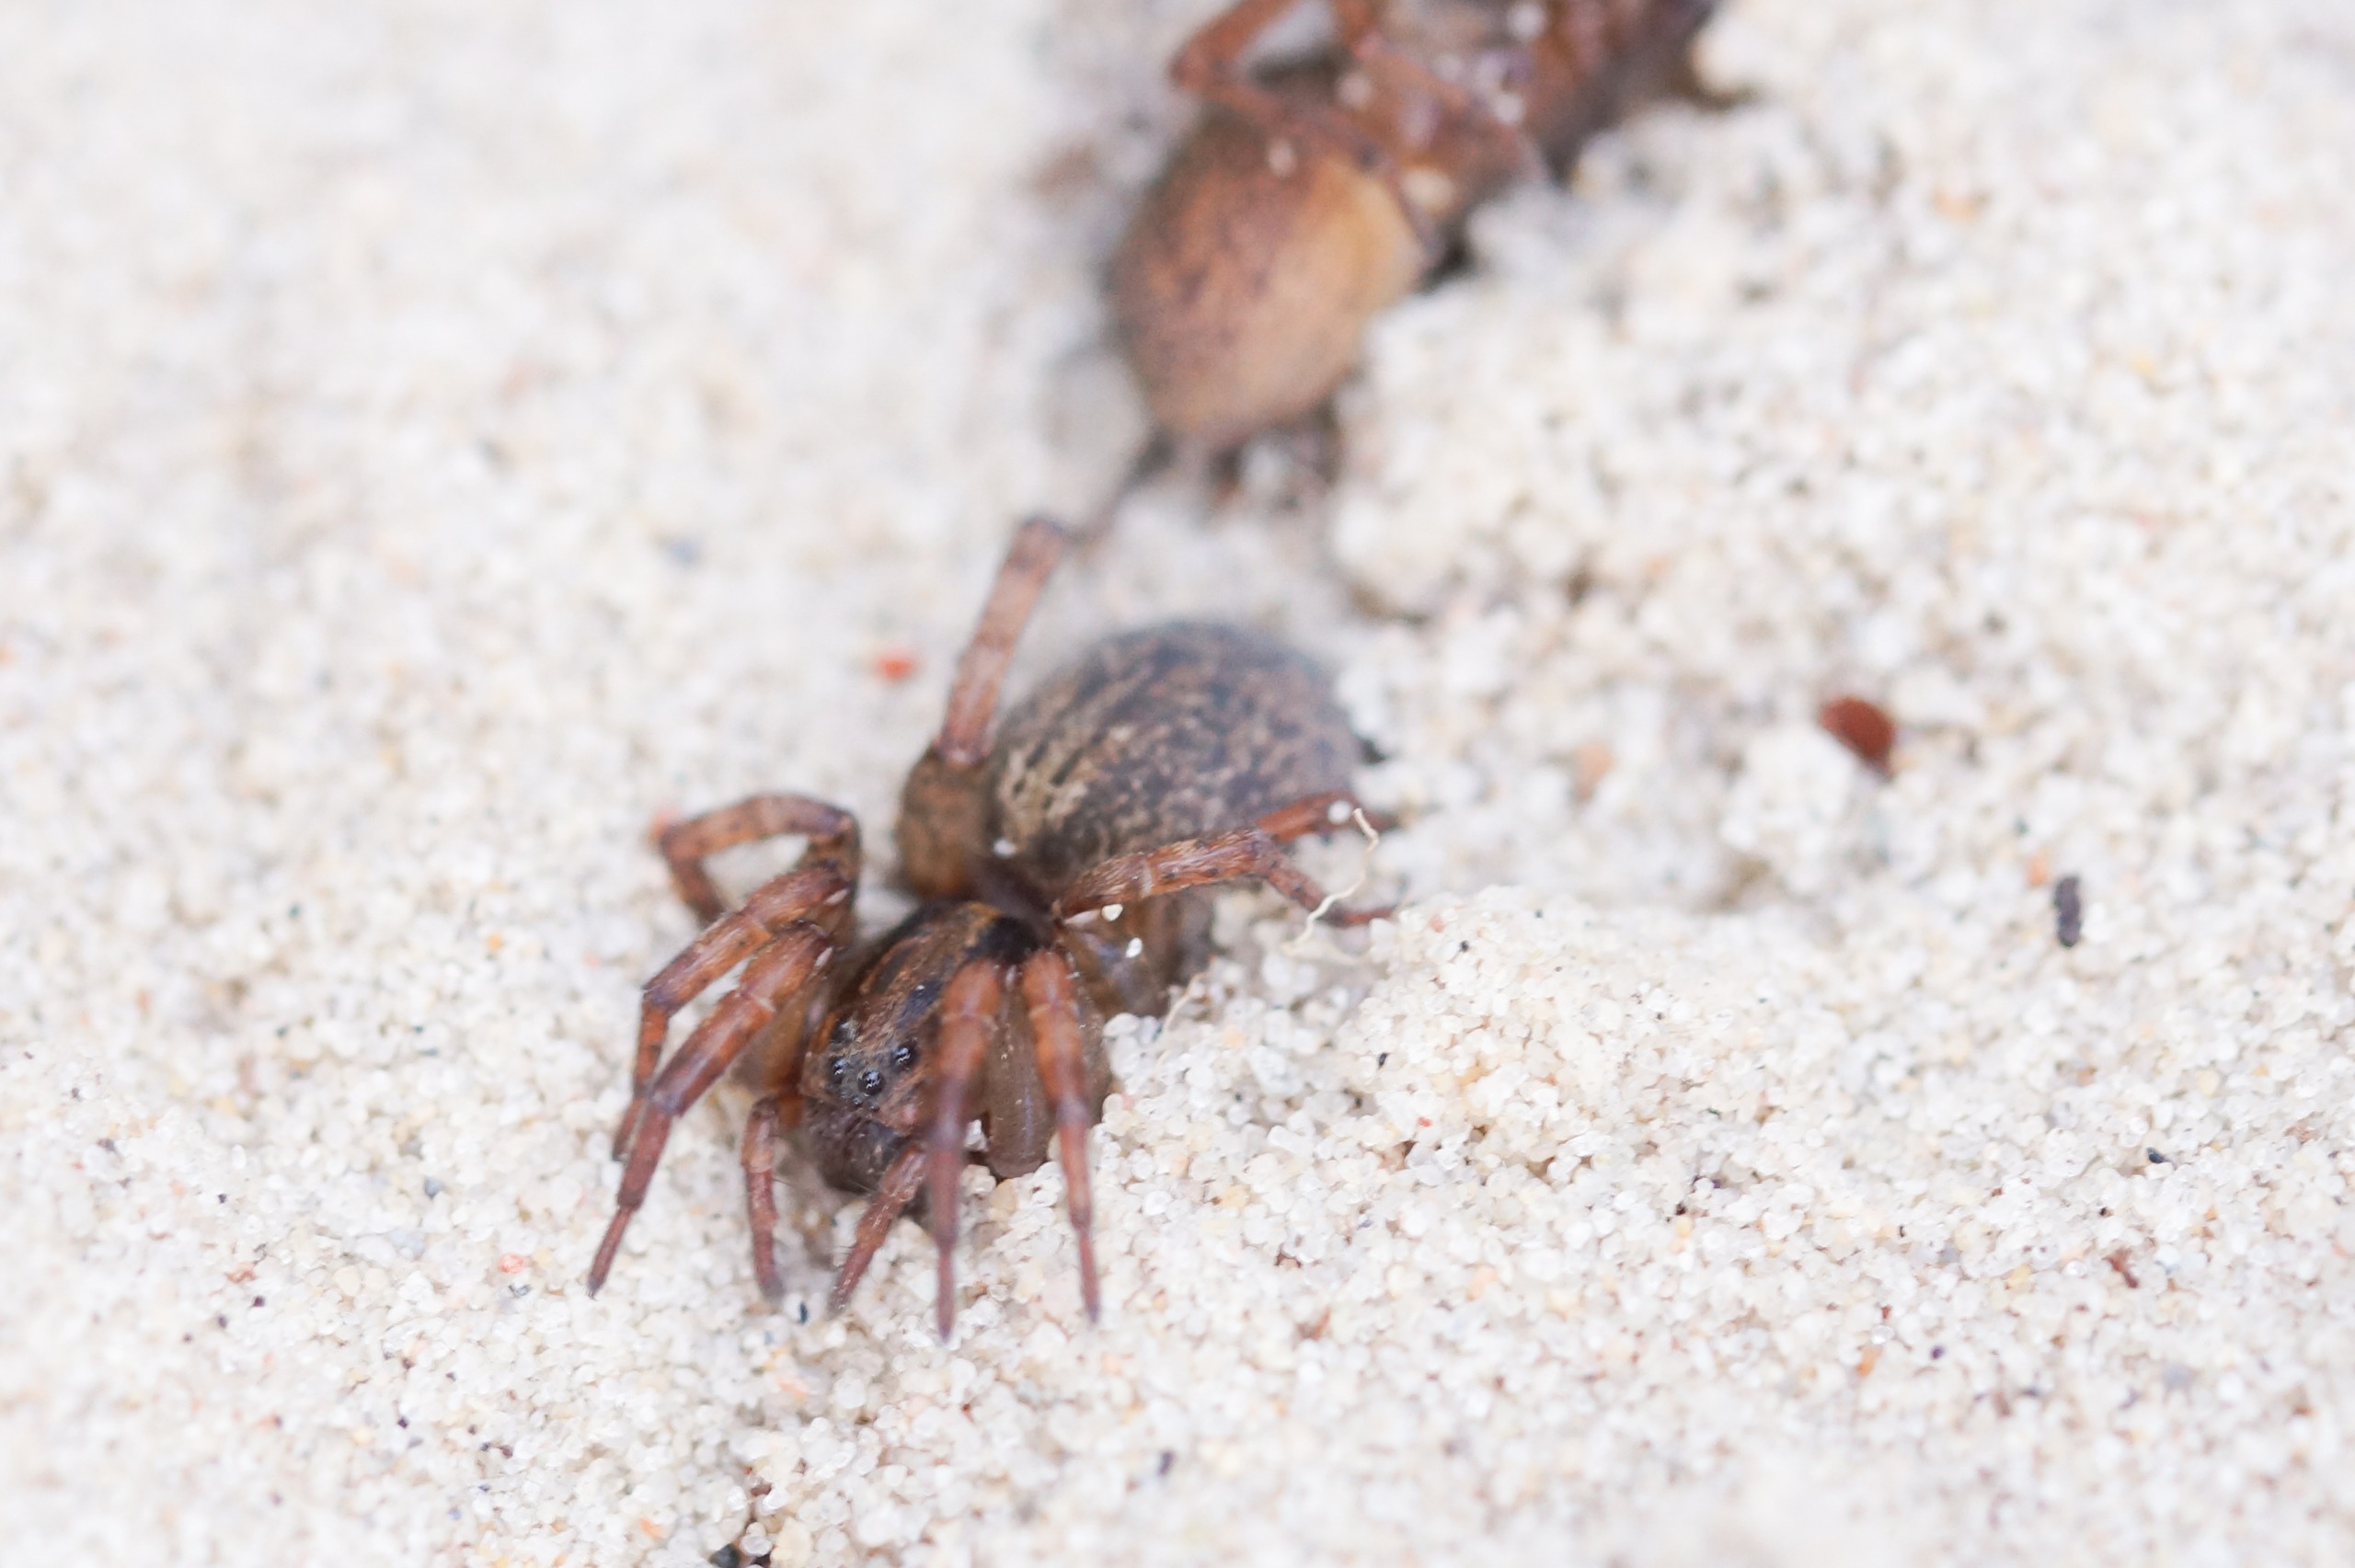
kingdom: Animalia
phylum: Arthropoda
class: Arachnida
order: Araneae
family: Lycosidae
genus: Trochosa
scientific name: Trochosa terricola
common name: Almindelig bjørneedderkop
